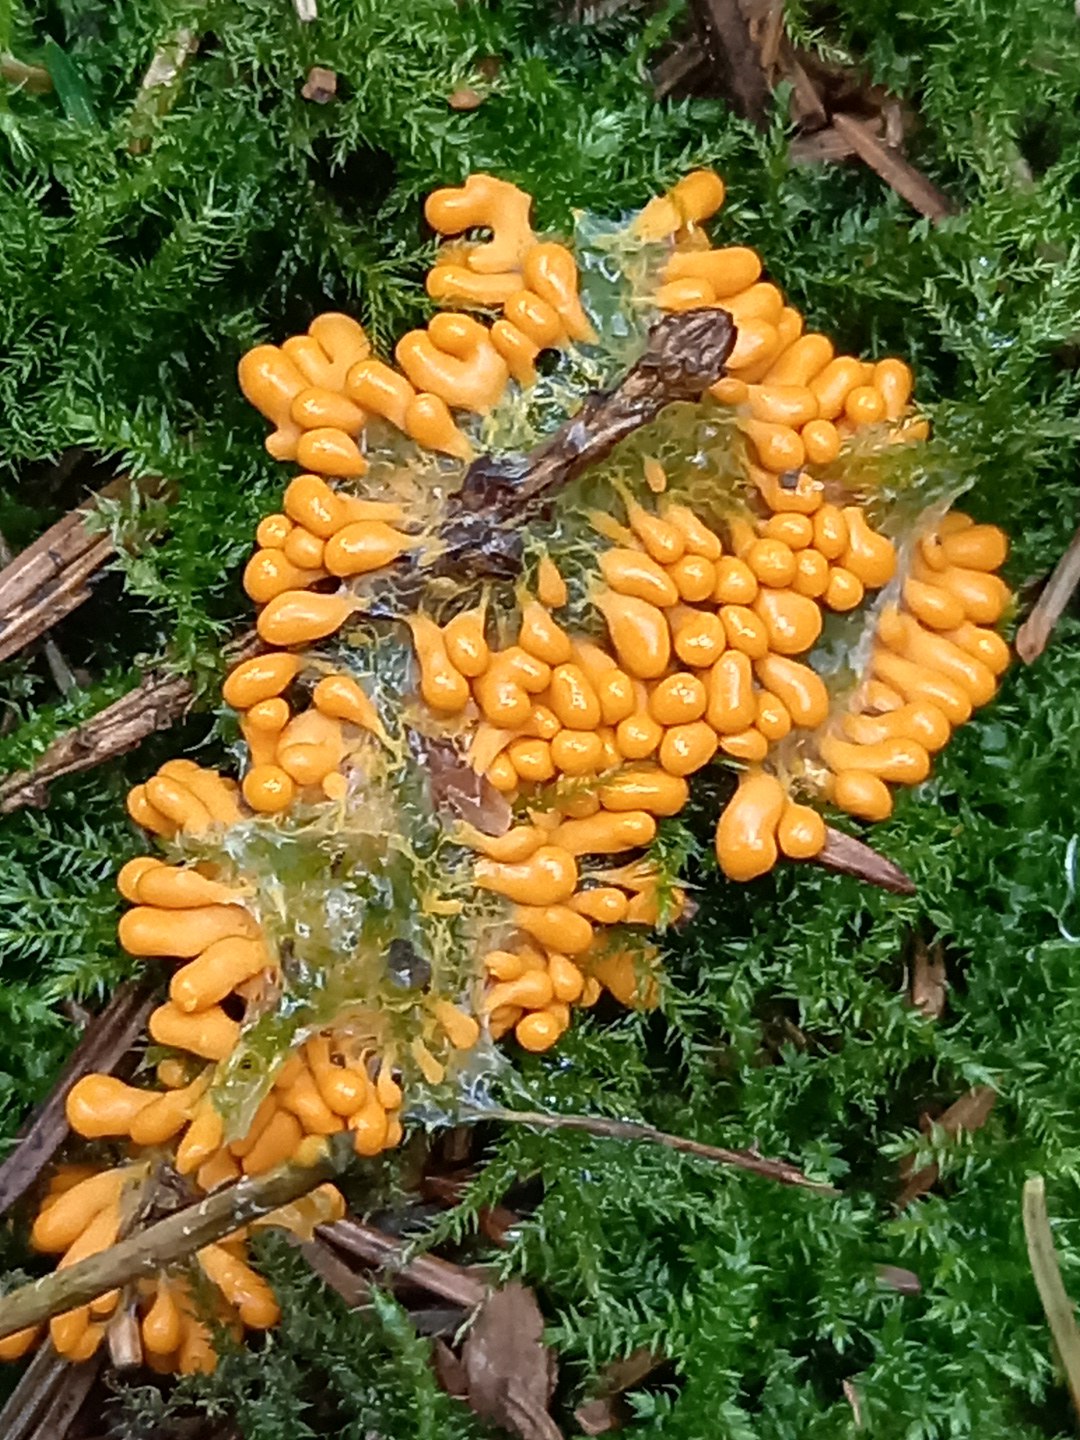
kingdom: Protozoa
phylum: Mycetozoa
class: Myxomycetes
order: Physarales
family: Physaraceae
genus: Leocarpus
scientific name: Leocarpus fragilis
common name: poleret glatfrø
